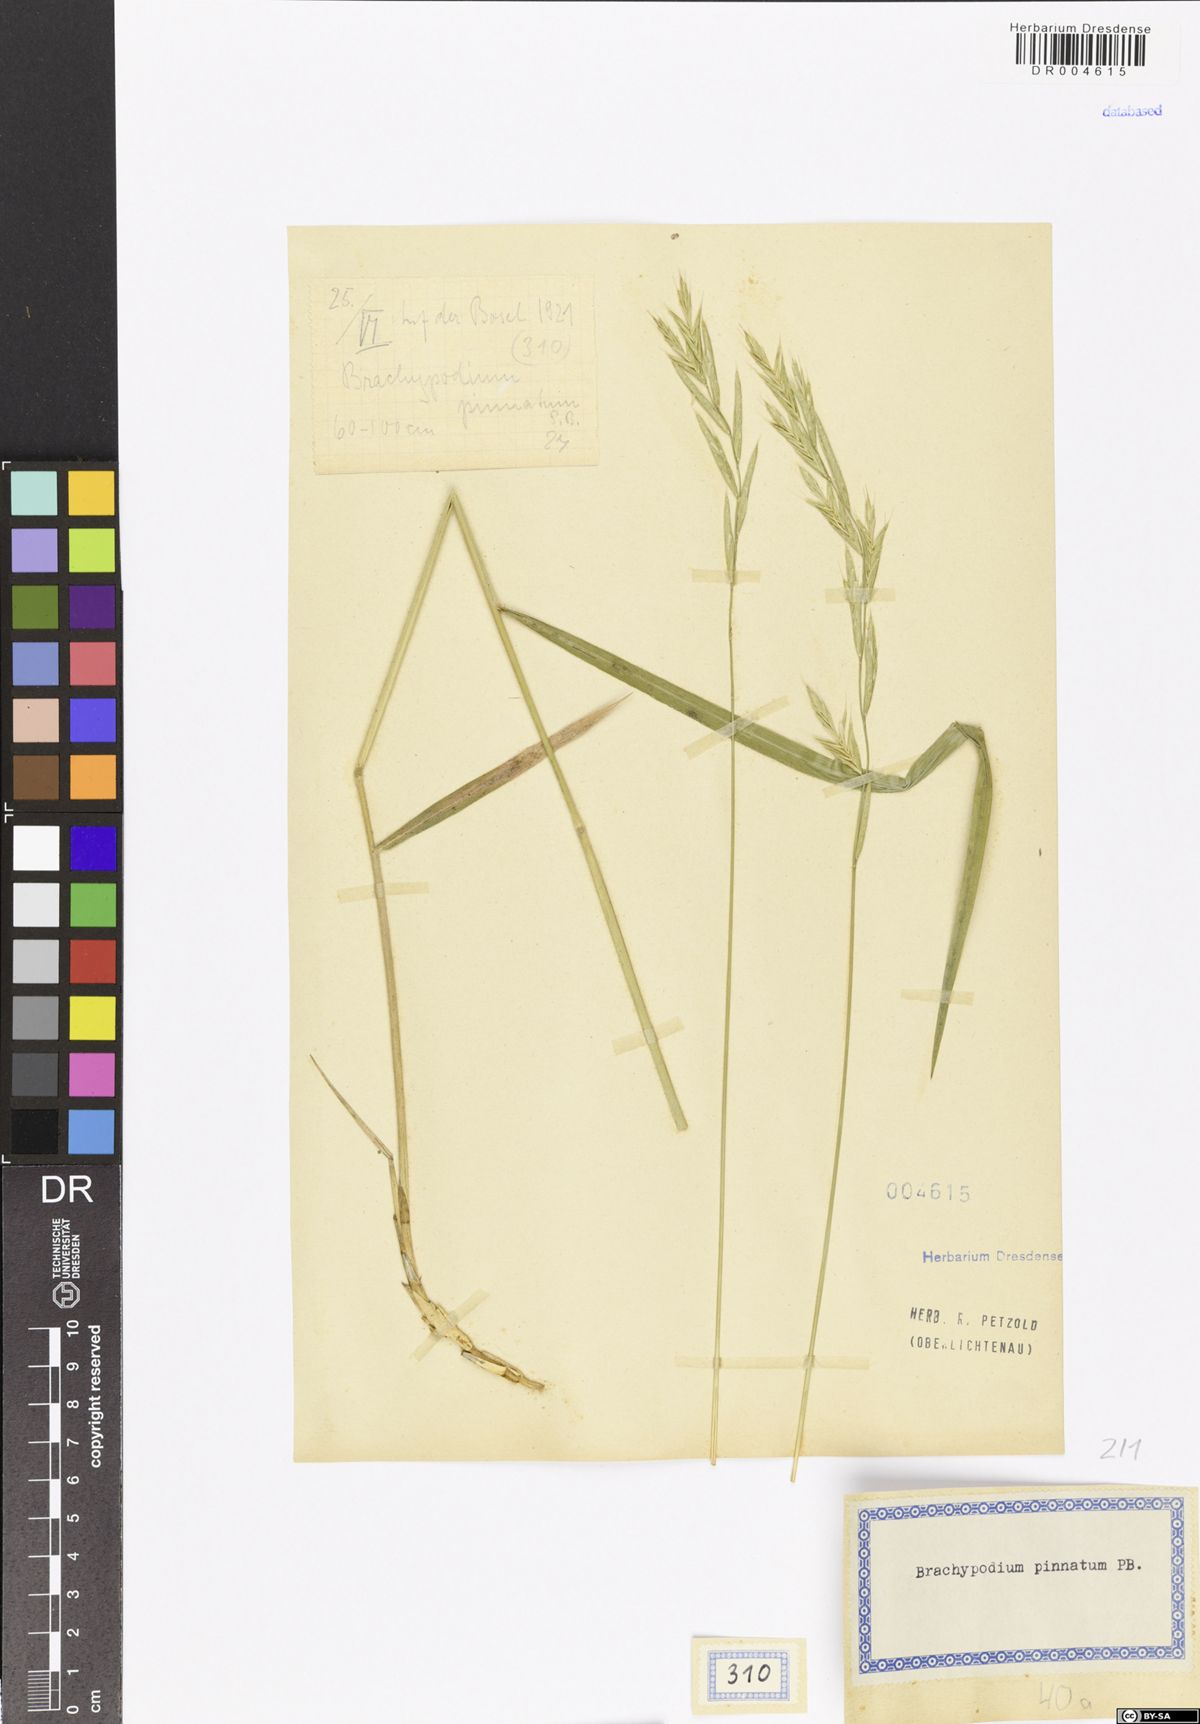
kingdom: Plantae
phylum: Tracheophyta
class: Liliopsida
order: Poales
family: Poaceae
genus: Brachypodium
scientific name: Brachypodium pinnatum
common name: Tor grass
